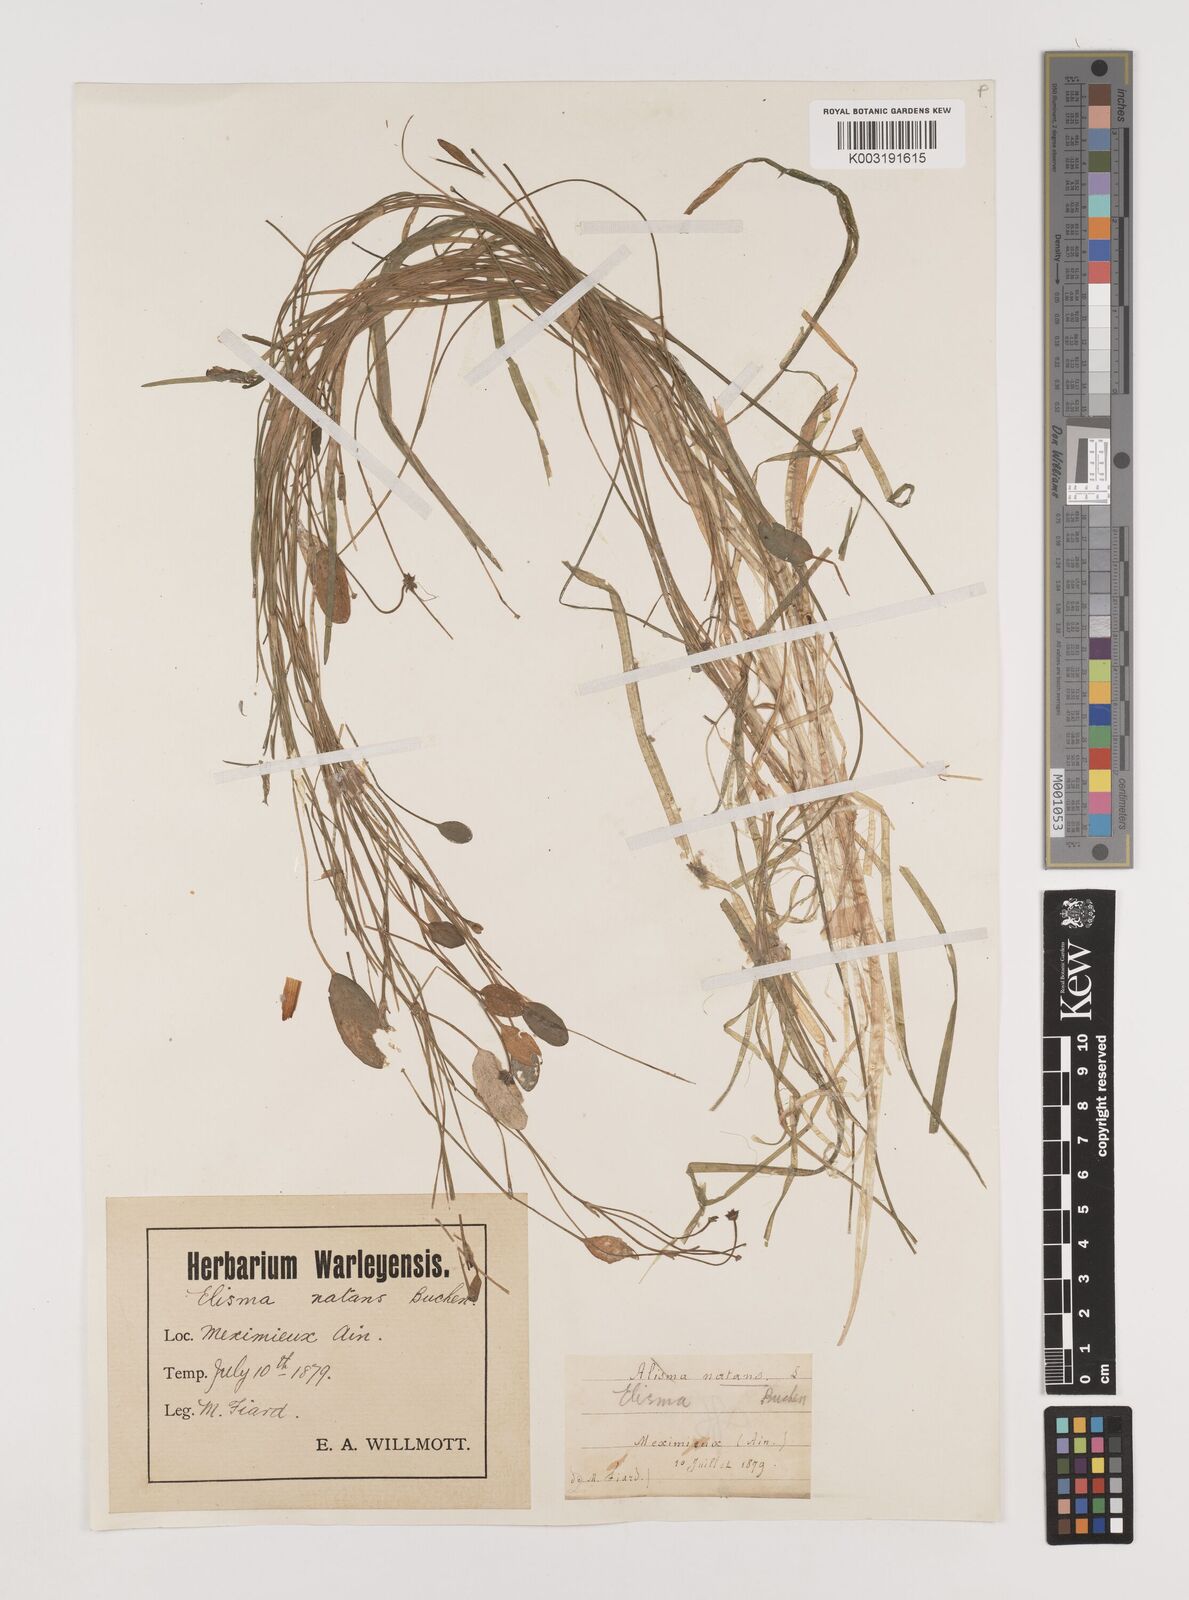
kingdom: Plantae
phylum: Tracheophyta
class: Liliopsida
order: Alismatales
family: Alismataceae
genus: Luronium
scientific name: Luronium natans
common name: Floating water-plantain
